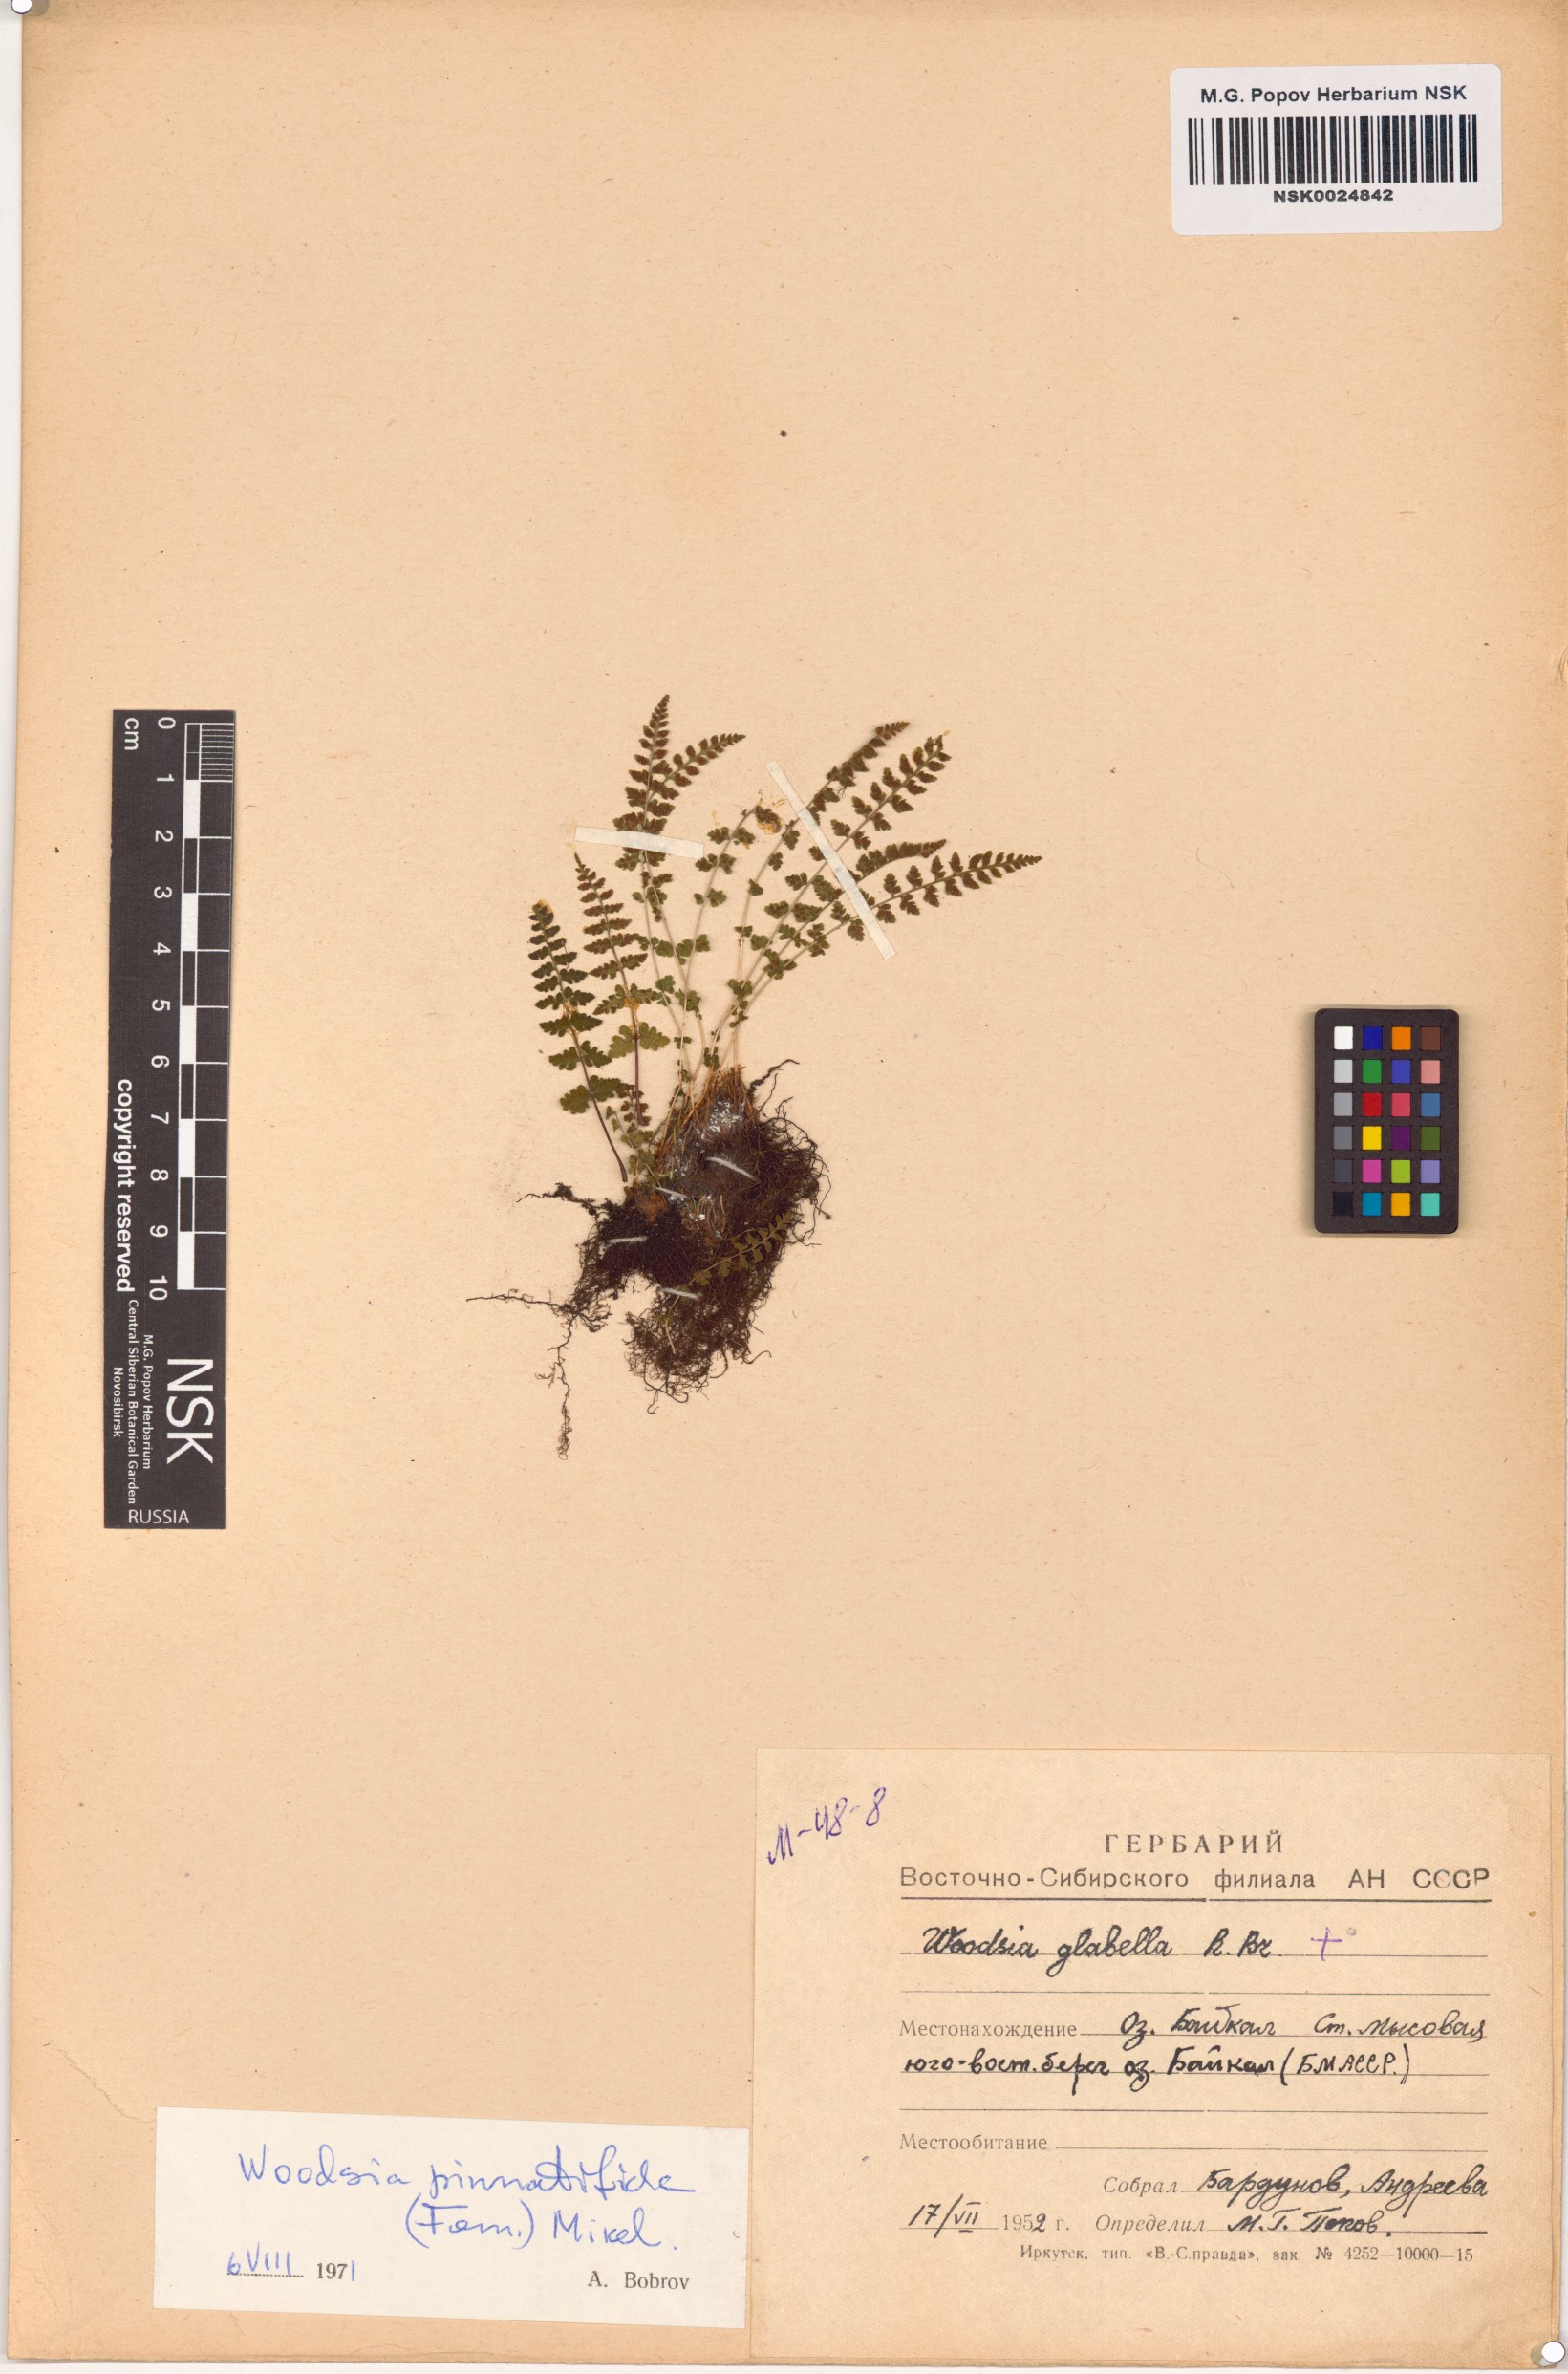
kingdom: Plantae
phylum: Tracheophyta
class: Polypodiopsida
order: Polypodiales
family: Woodsiaceae
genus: Woodsia
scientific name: Woodsia pulchella
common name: Graceful woodsia
